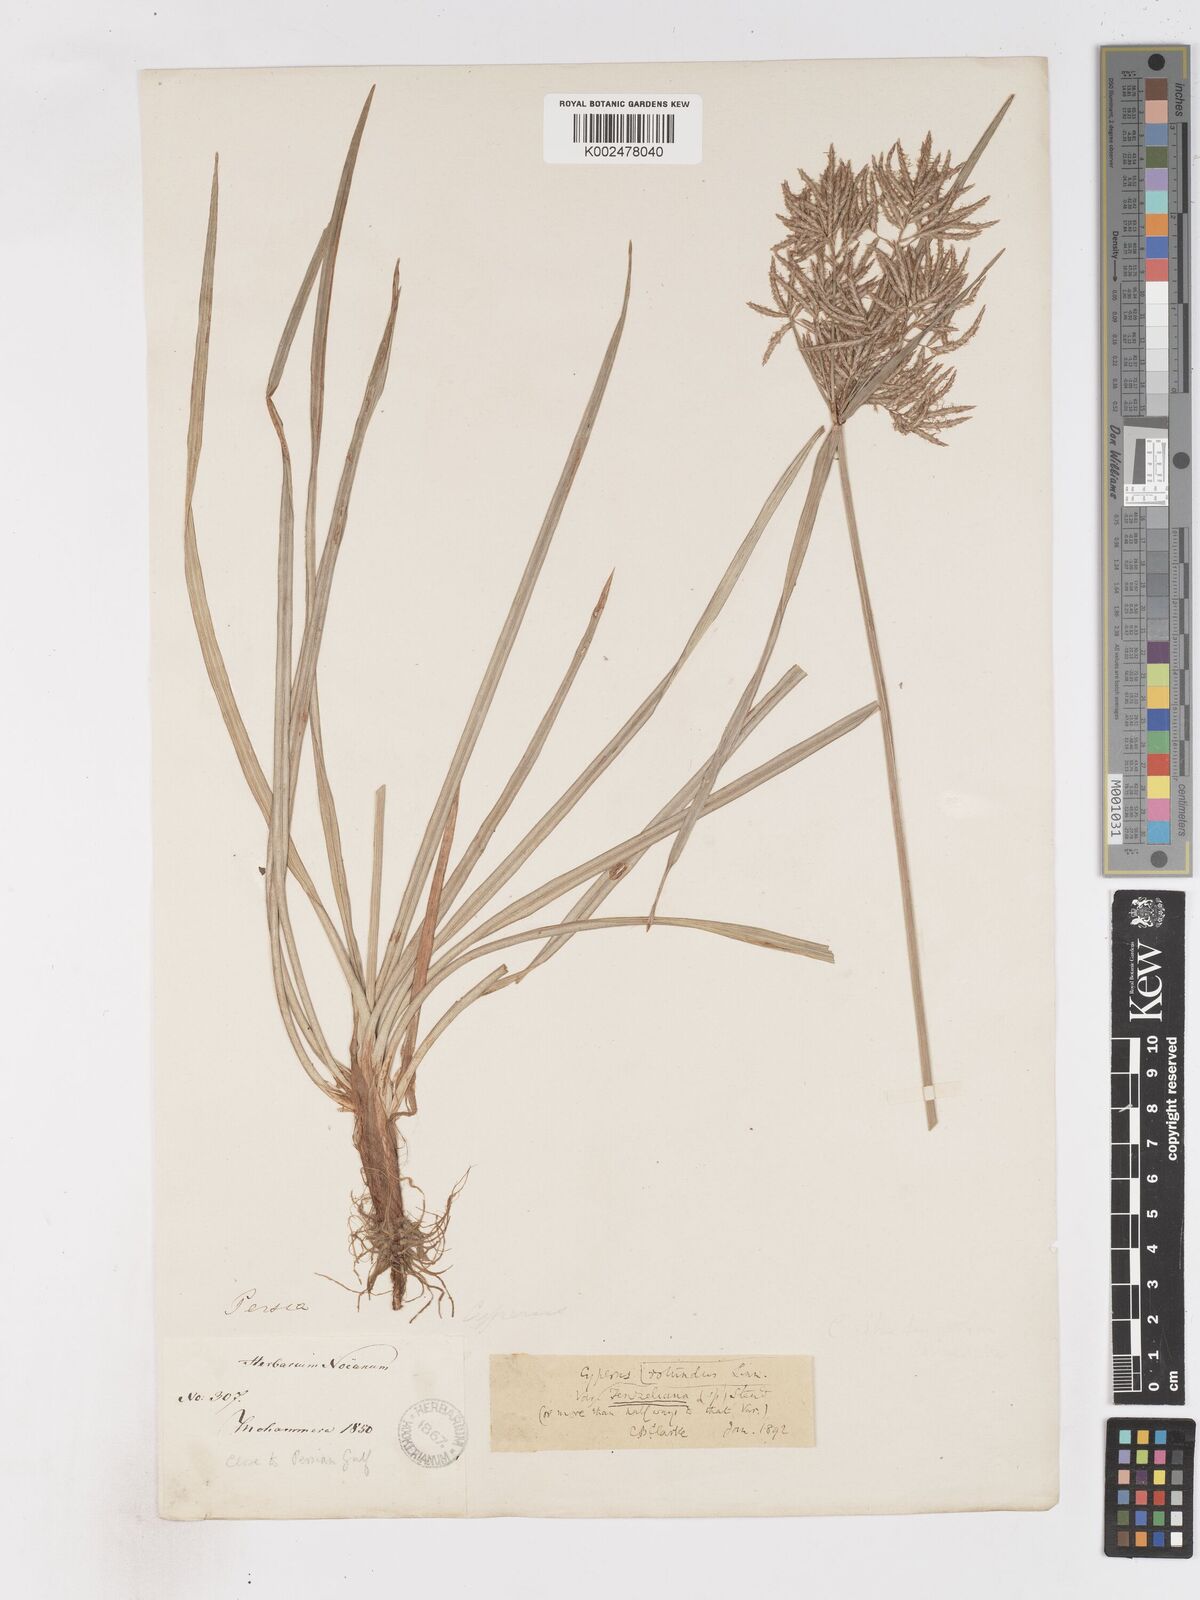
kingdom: Plantae
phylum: Tracheophyta
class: Liliopsida
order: Poales
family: Cyperaceae
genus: Cyperus
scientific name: Cyperus rotundus
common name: Nutgrass
